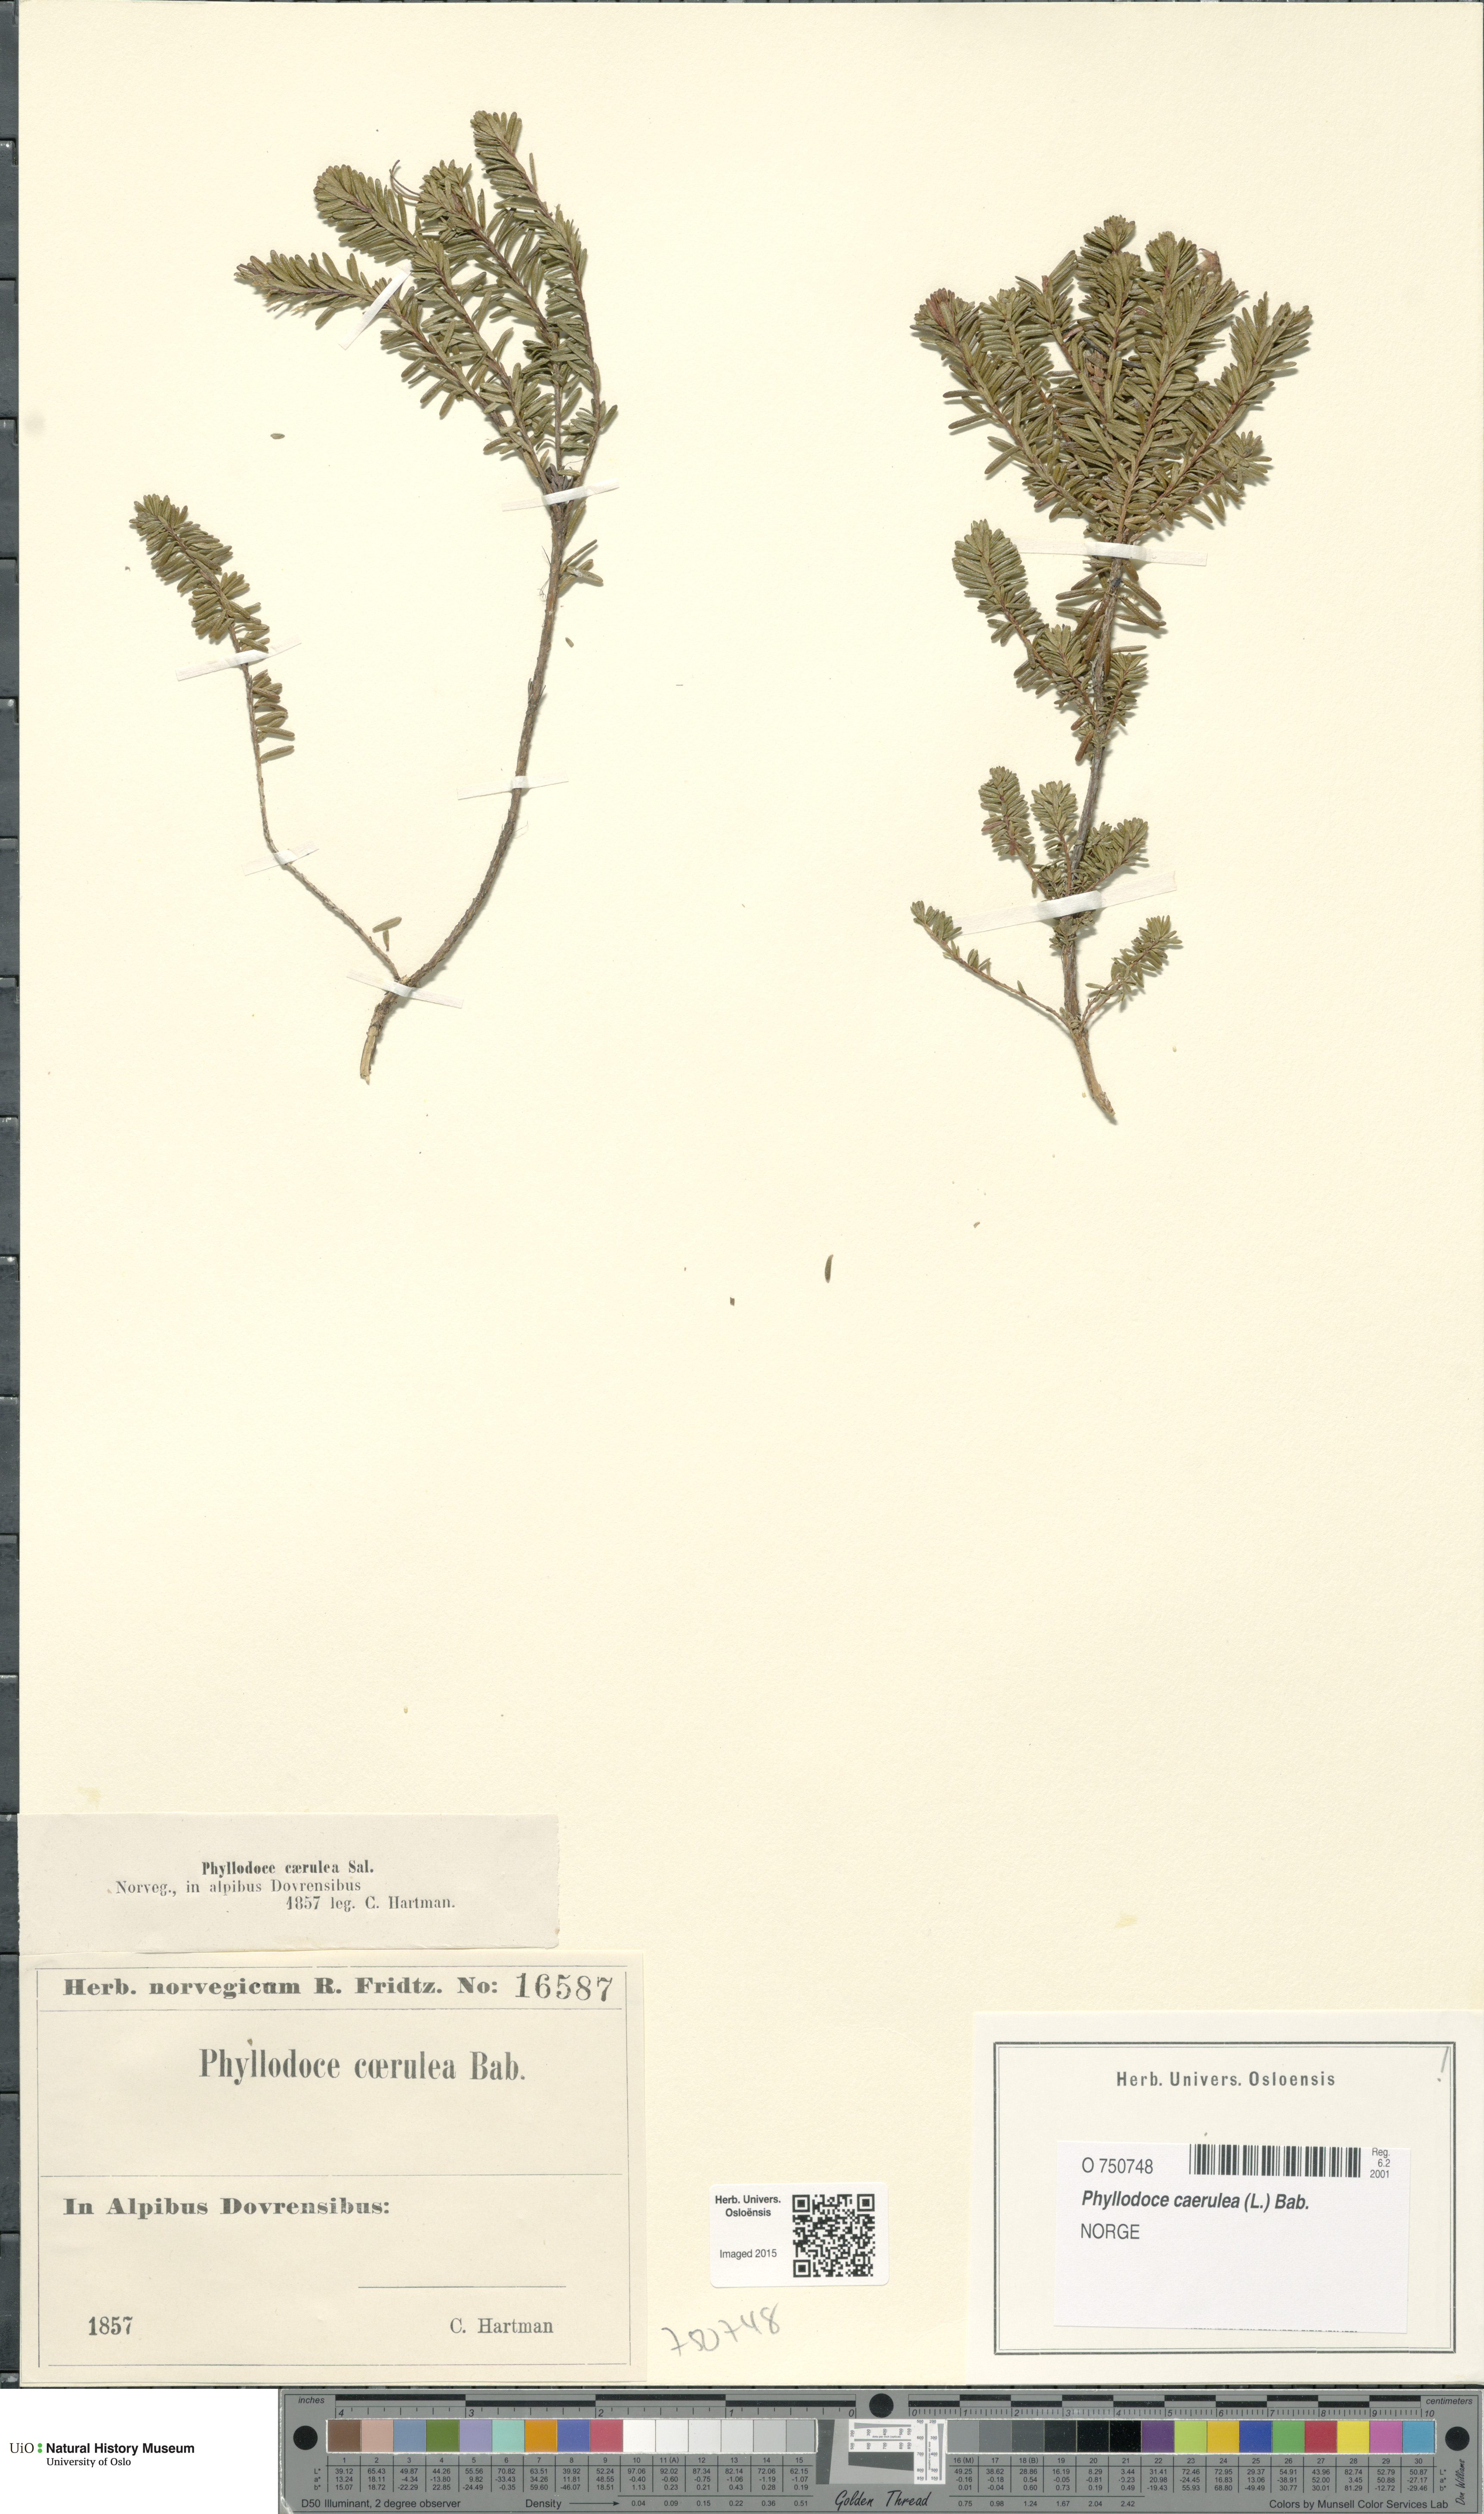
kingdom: Plantae
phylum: Tracheophyta
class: Magnoliopsida
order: Ericales
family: Ericaceae
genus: Phyllodoce
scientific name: Phyllodoce caerulea
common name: Blue heath
